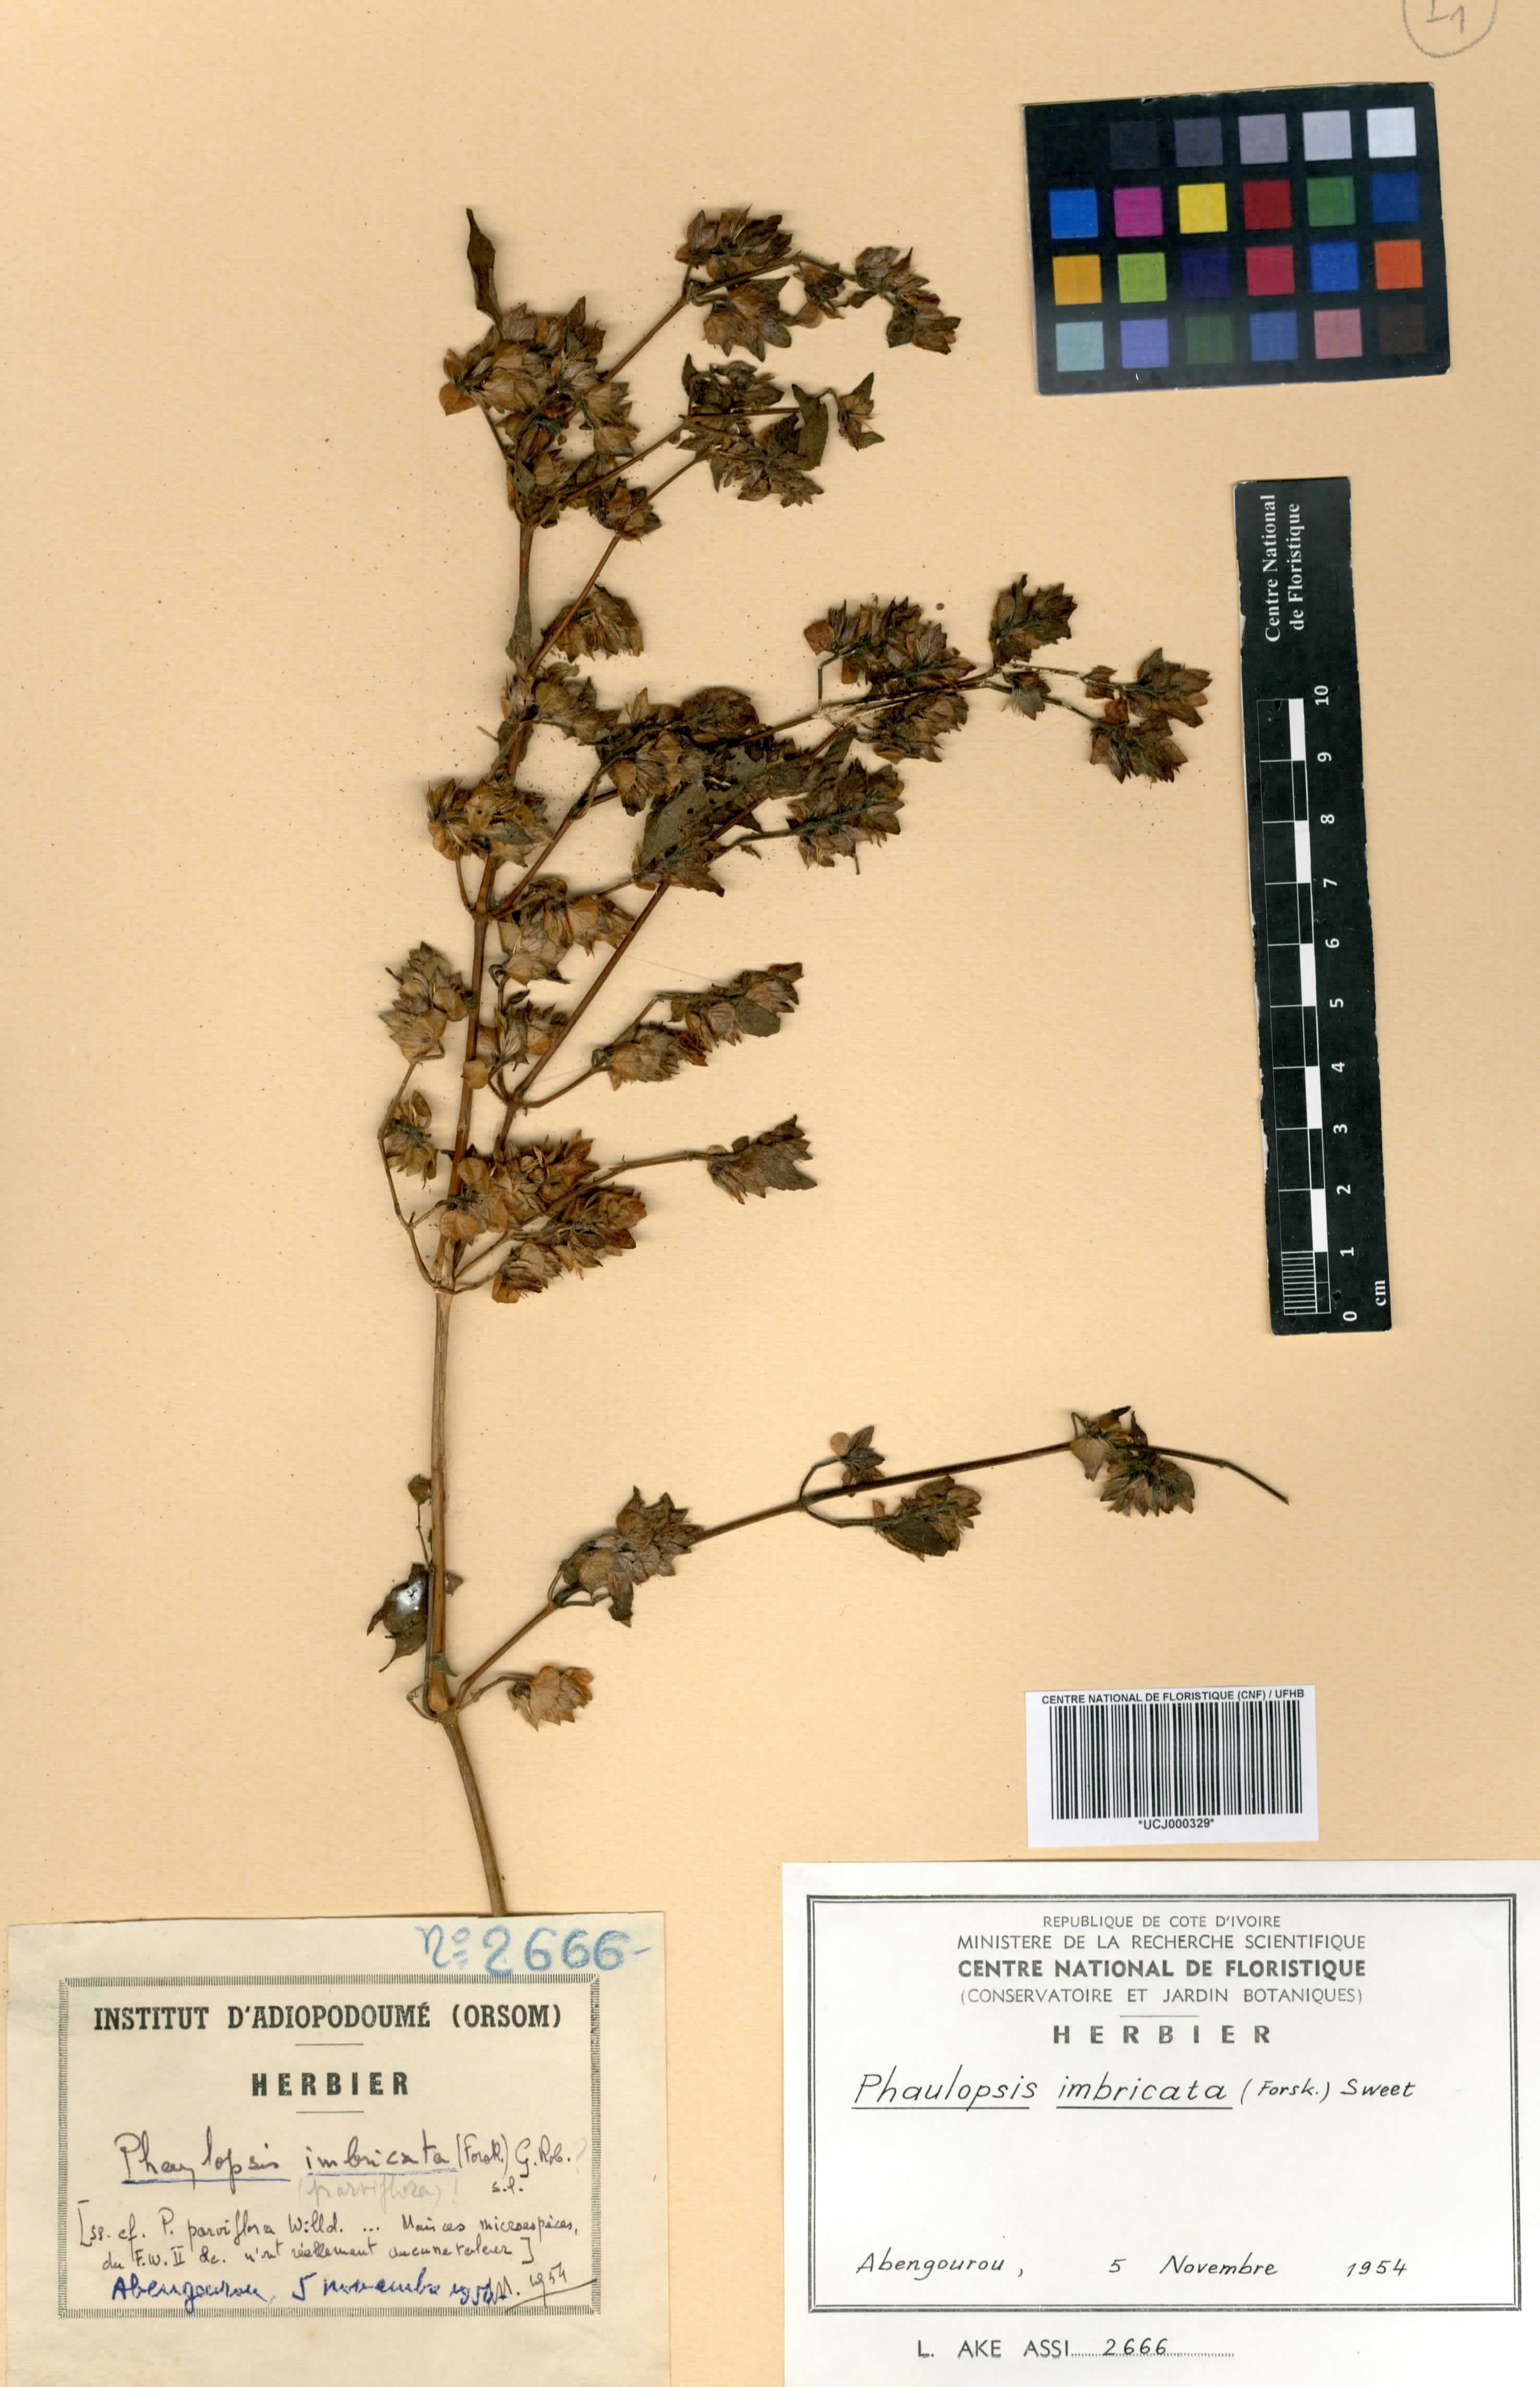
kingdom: Plantae
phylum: Tracheophyta
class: Magnoliopsida
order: Lamiales
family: Acanthaceae
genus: Phaulopsis
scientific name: Phaulopsis imbricata
